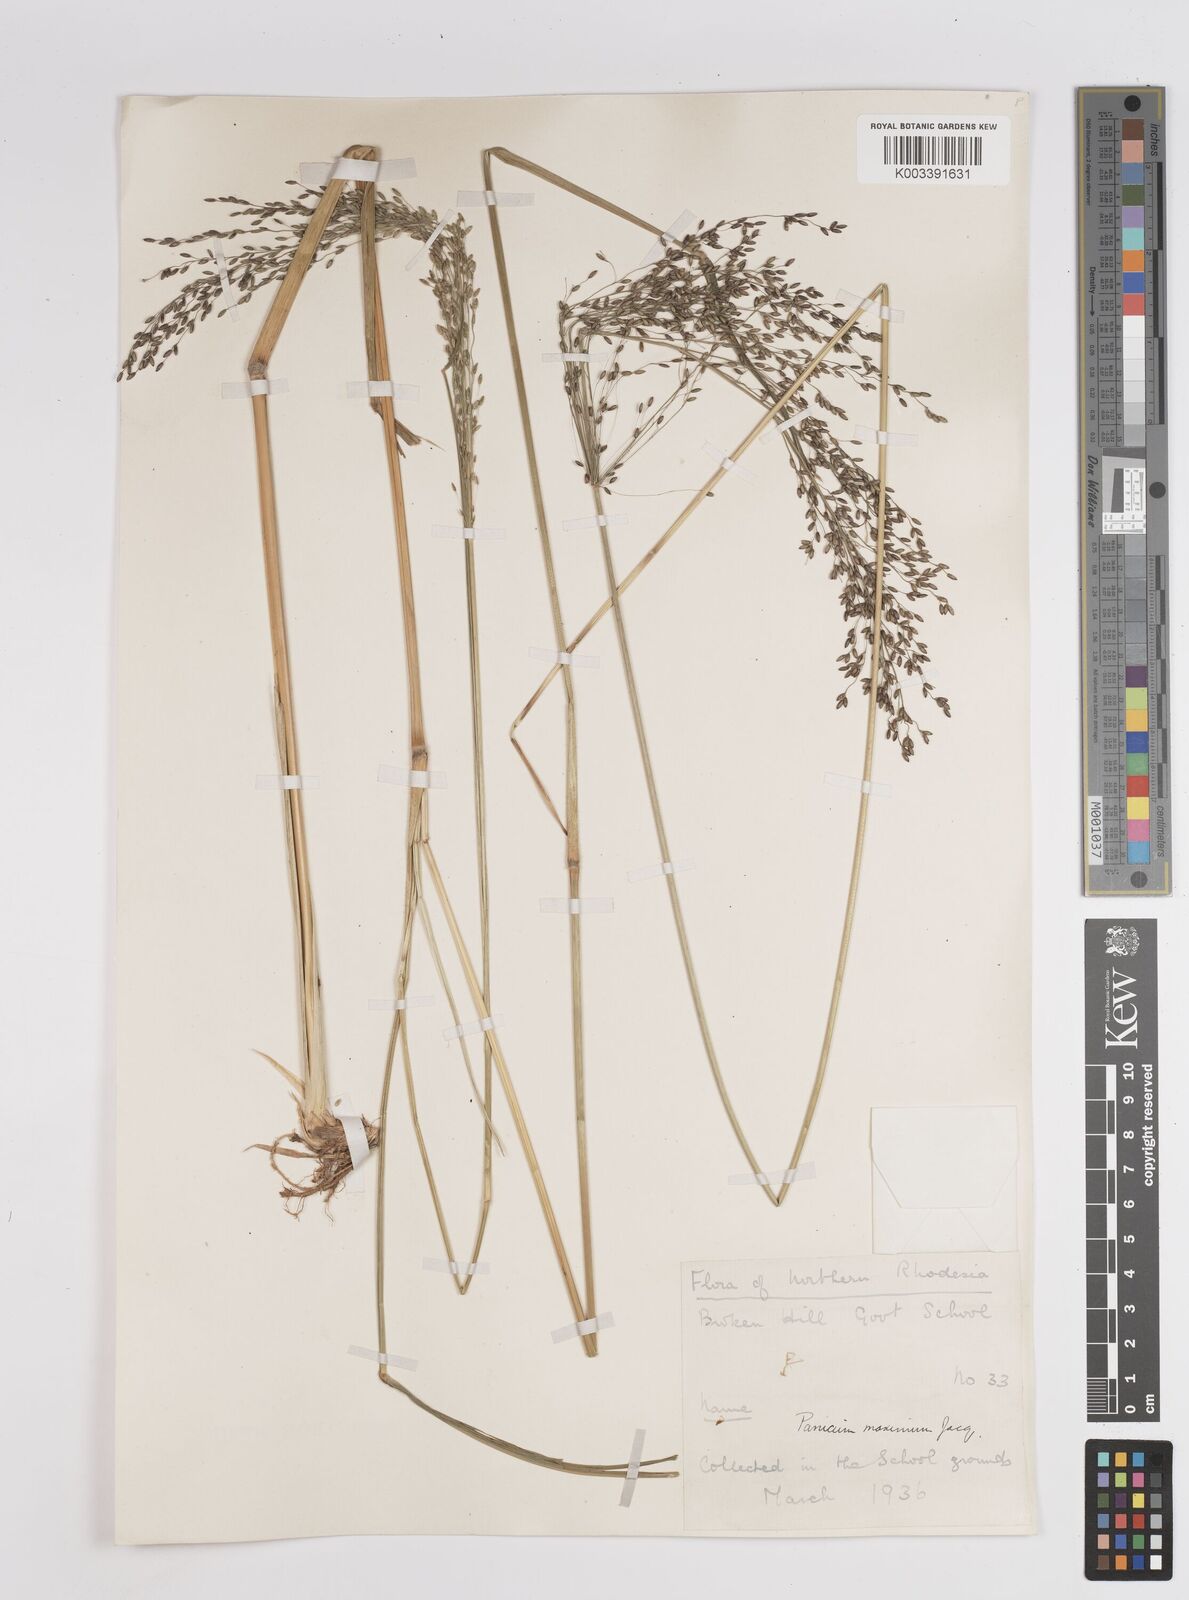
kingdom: Plantae
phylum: Tracheophyta
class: Liliopsida
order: Poales
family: Poaceae
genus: Megathyrsus
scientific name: Megathyrsus maximus
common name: Guineagrass
